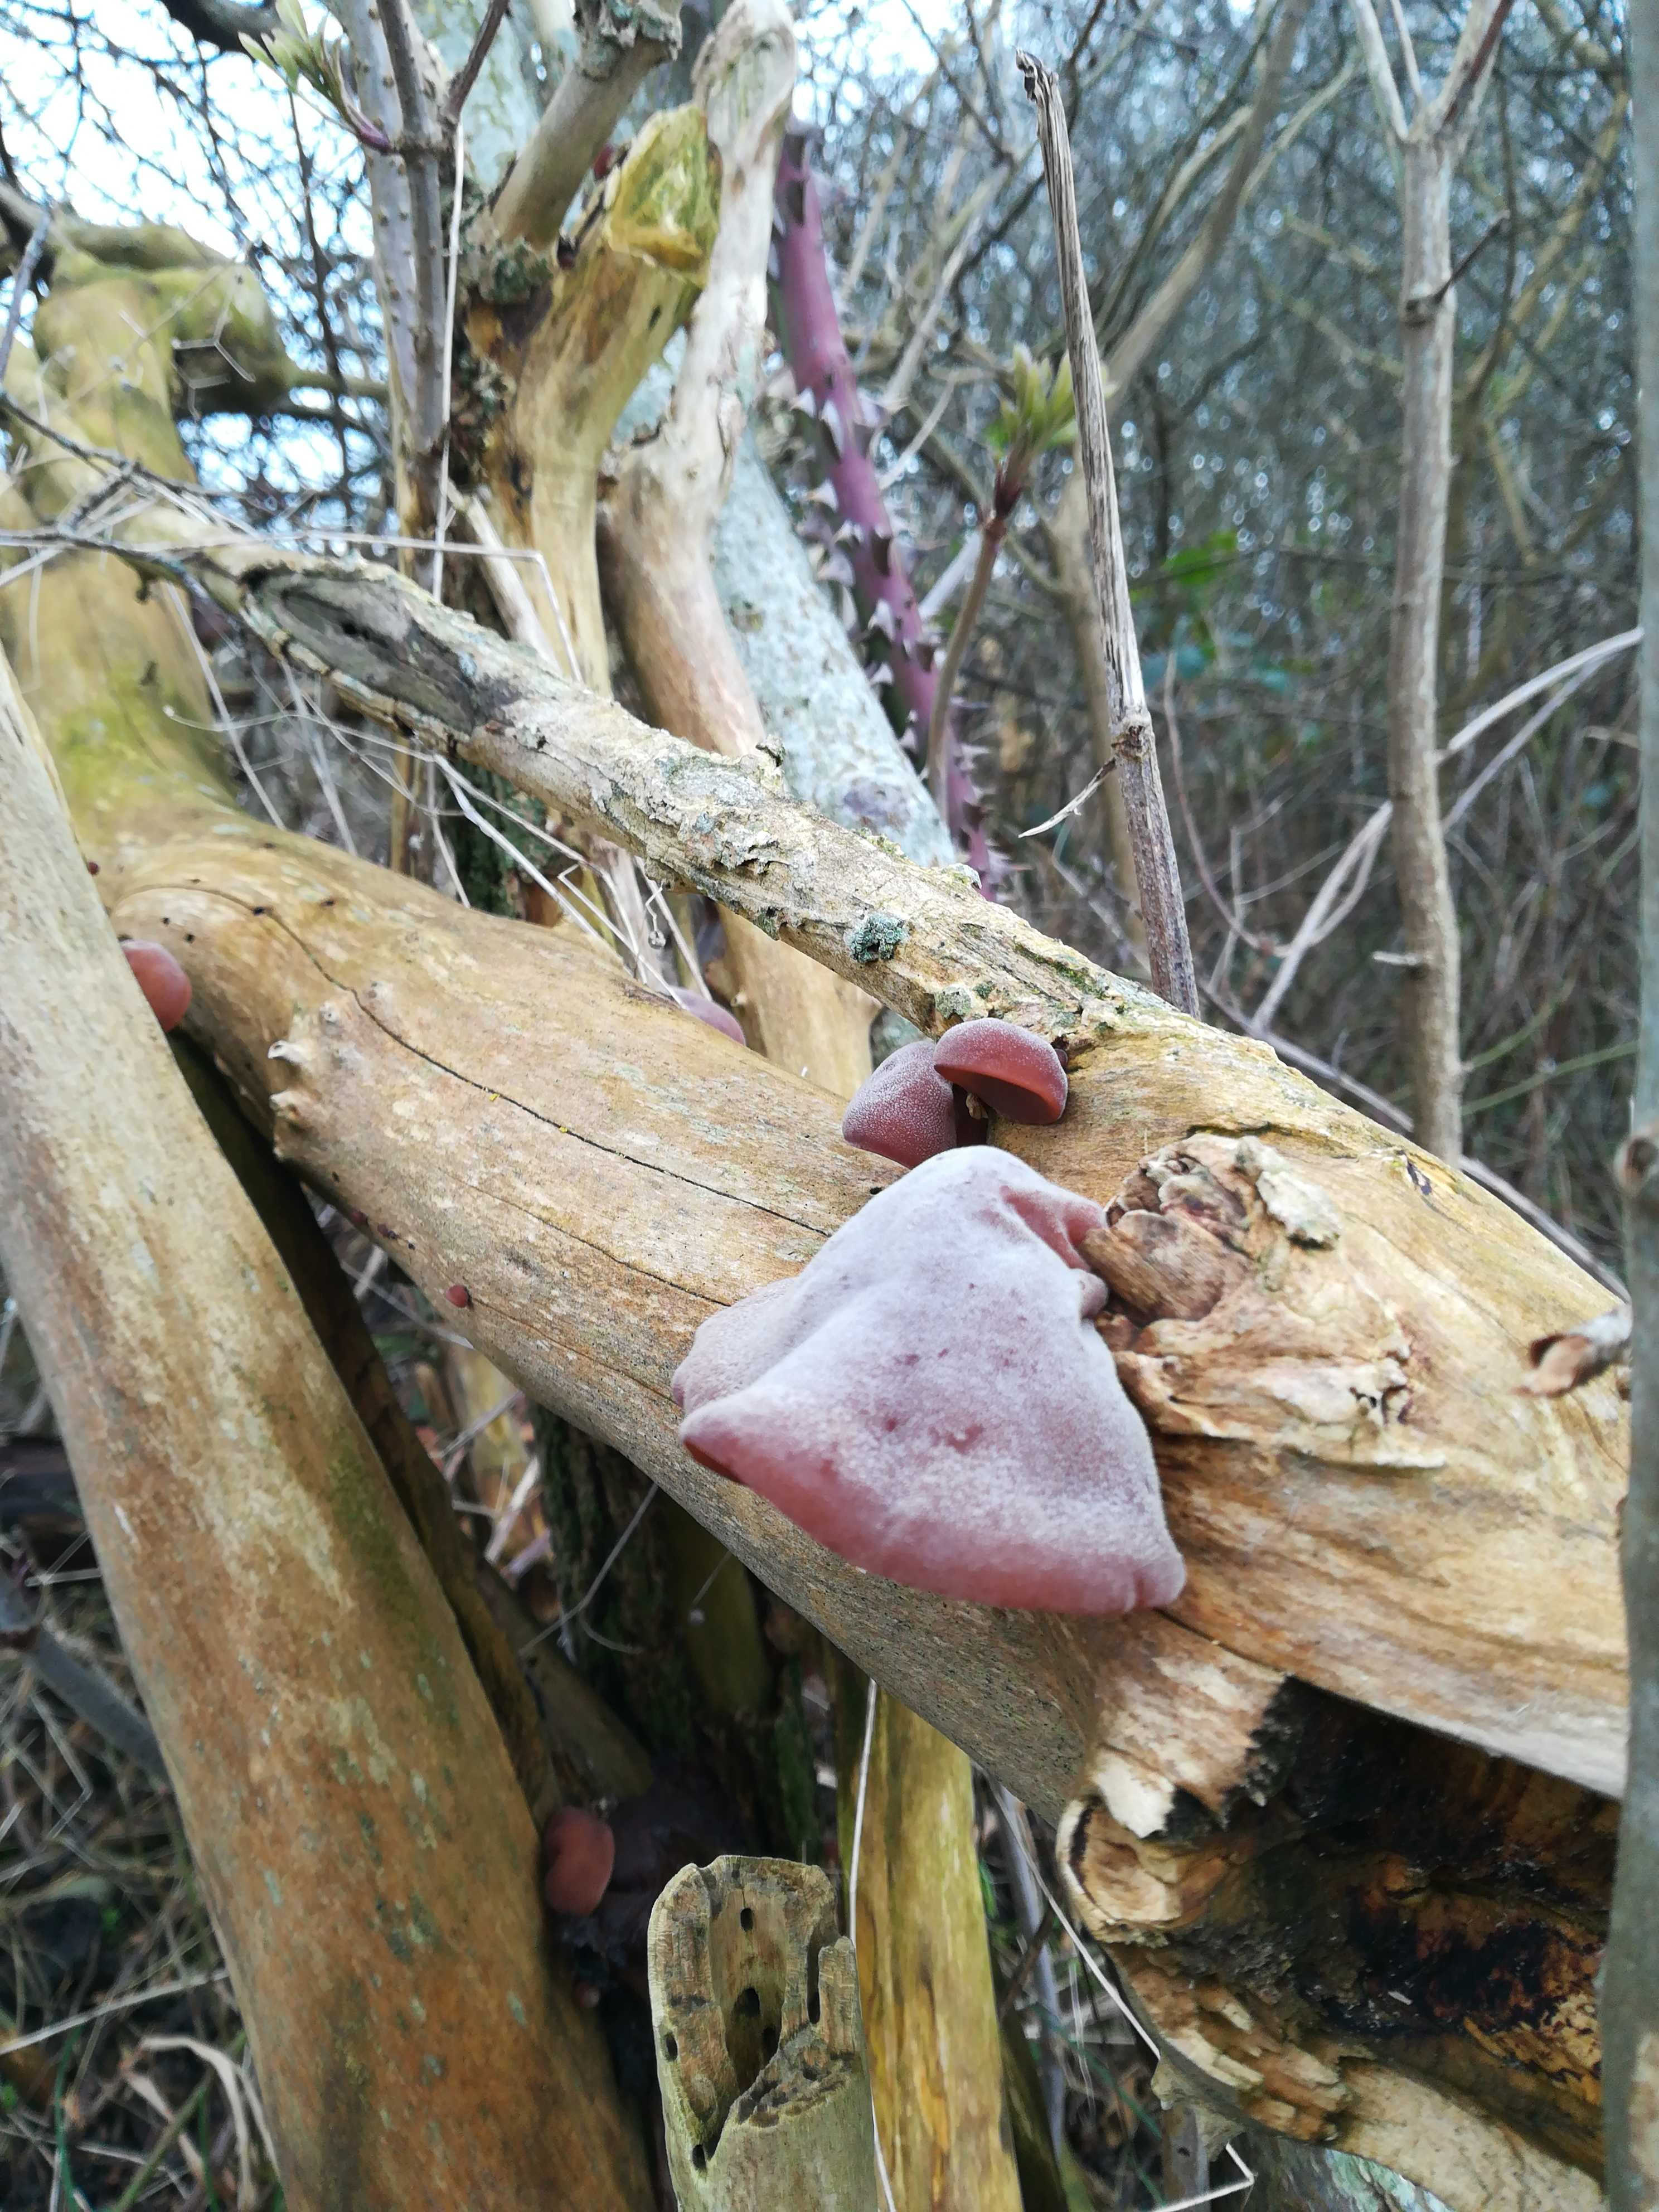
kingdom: Fungi
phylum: Basidiomycota
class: Agaricomycetes
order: Auriculariales
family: Auriculariaceae
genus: Auricularia
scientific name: Auricularia auricula-judae
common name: almindelig judasøre
